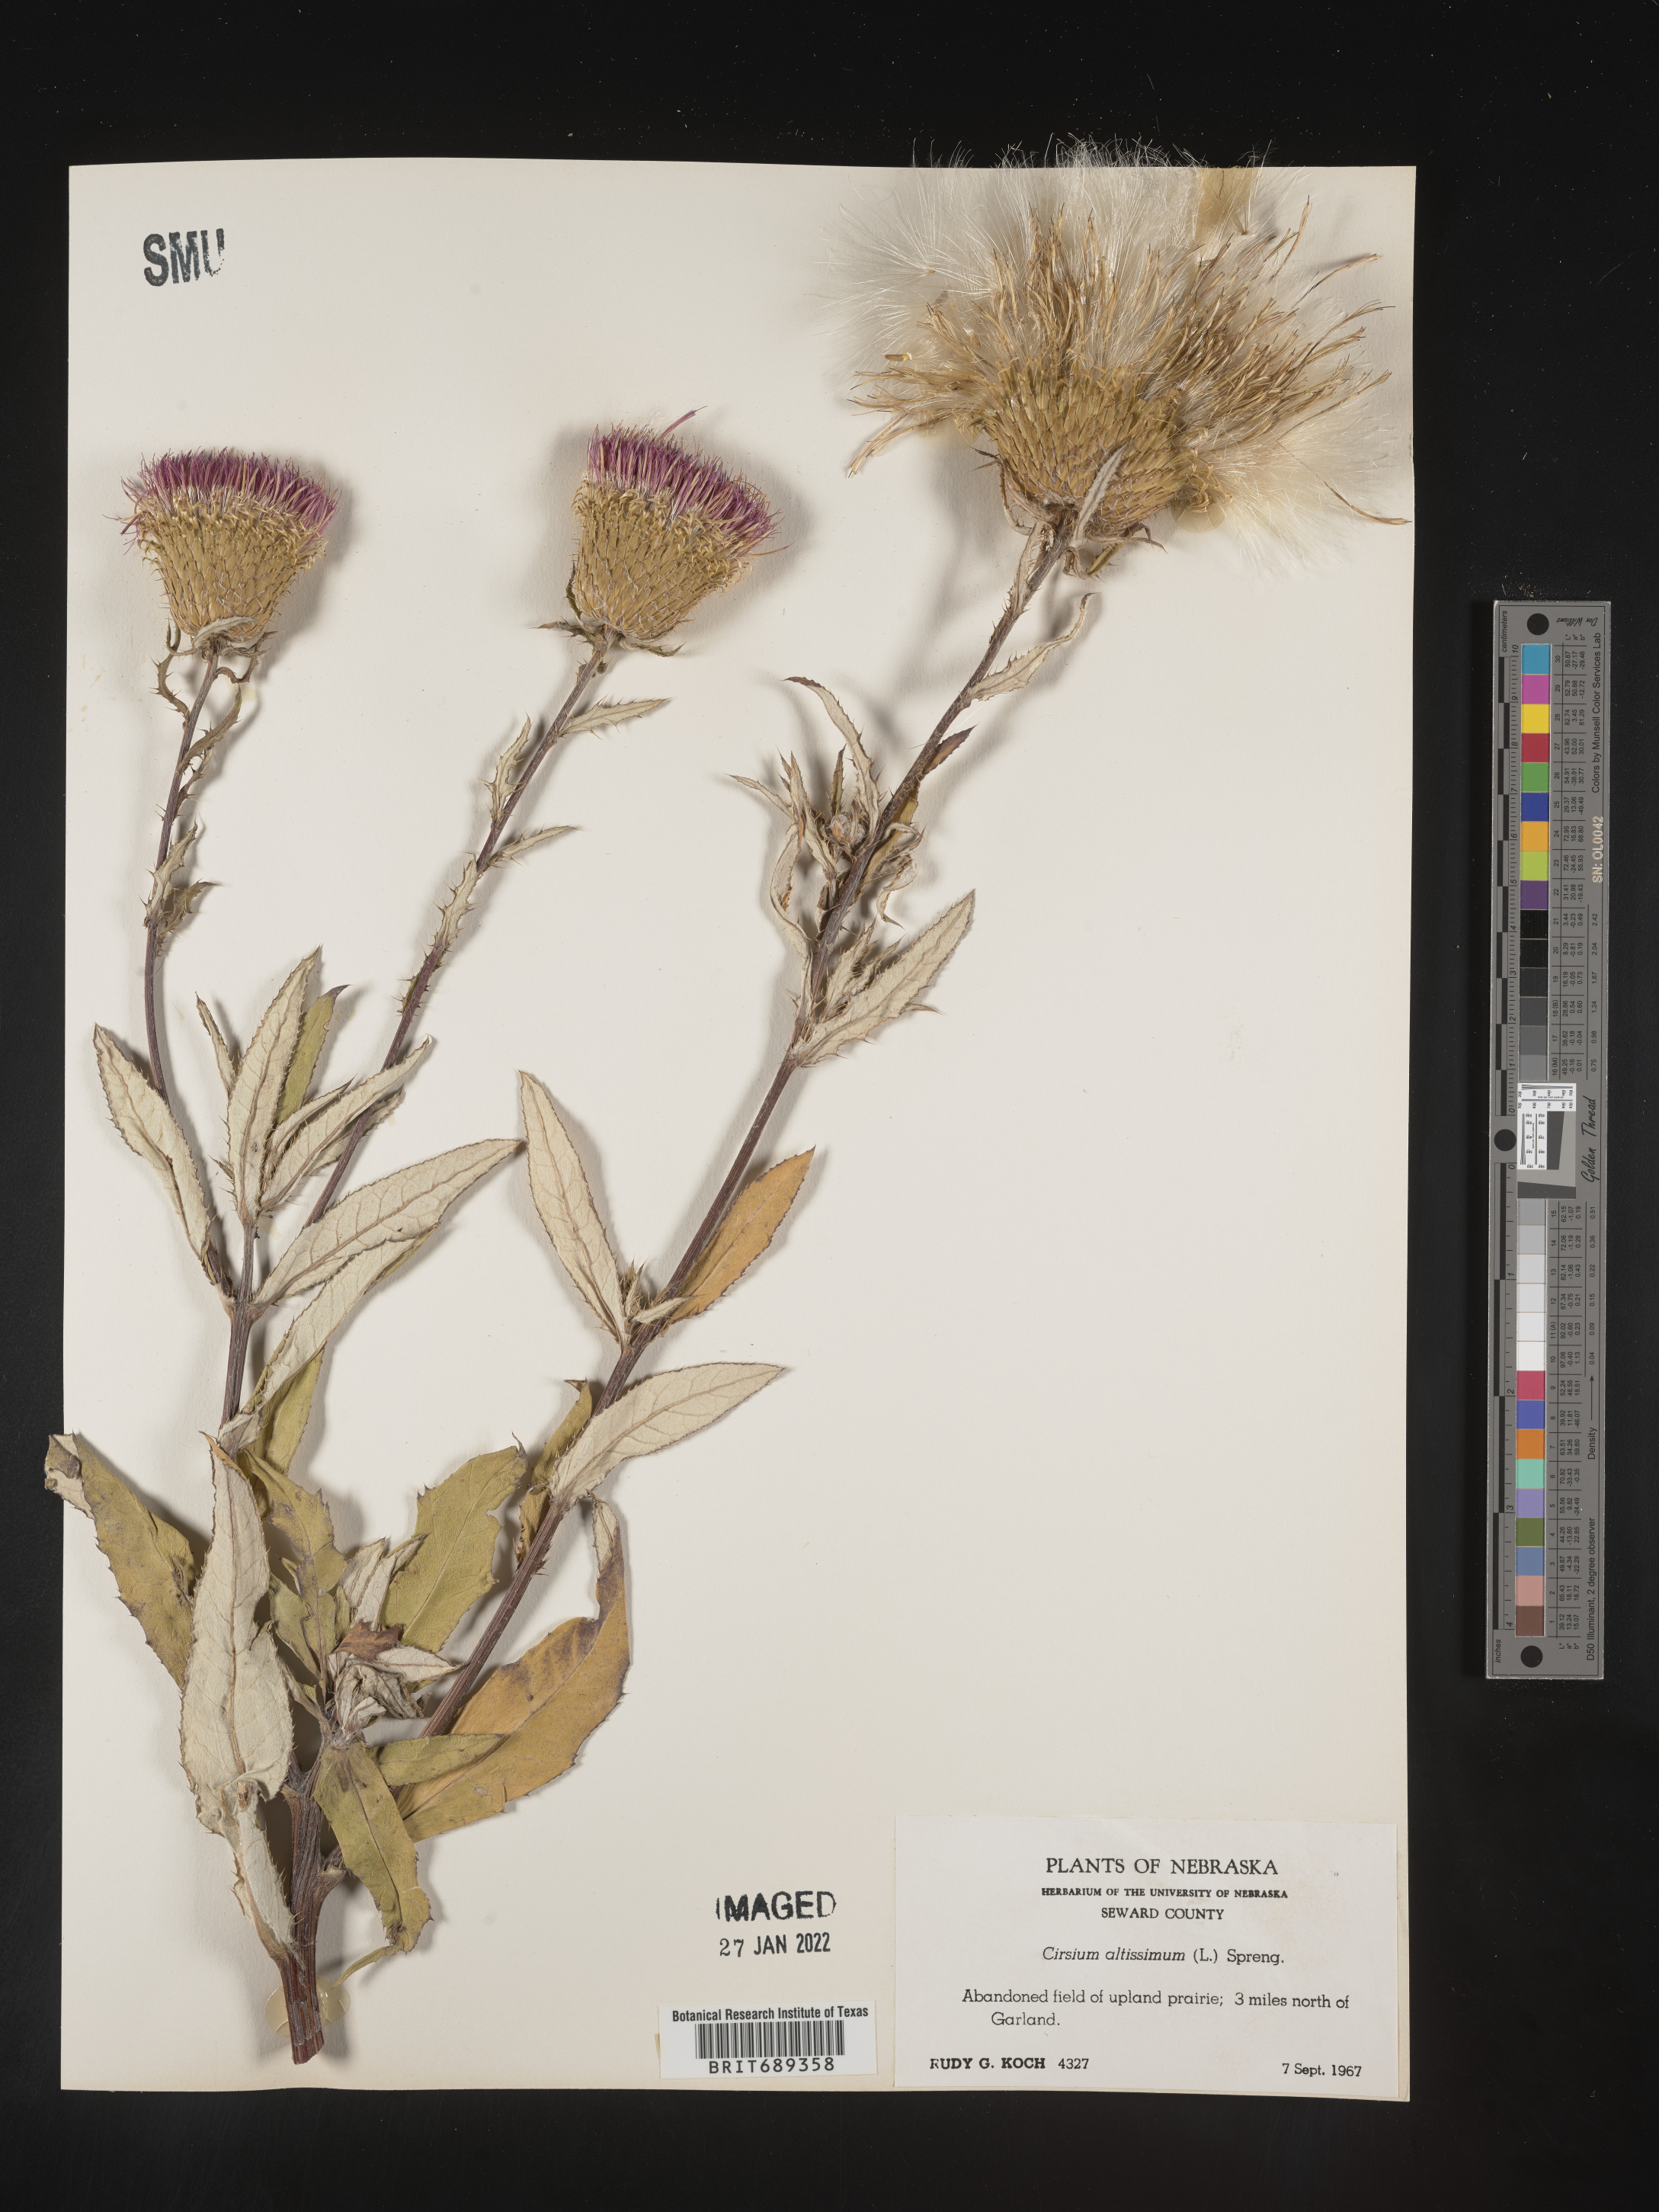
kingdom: Plantae
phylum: Tracheophyta
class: Magnoliopsida
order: Asterales
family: Asteraceae
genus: Cirsium
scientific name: Cirsium altissimum
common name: Roadside thistle
